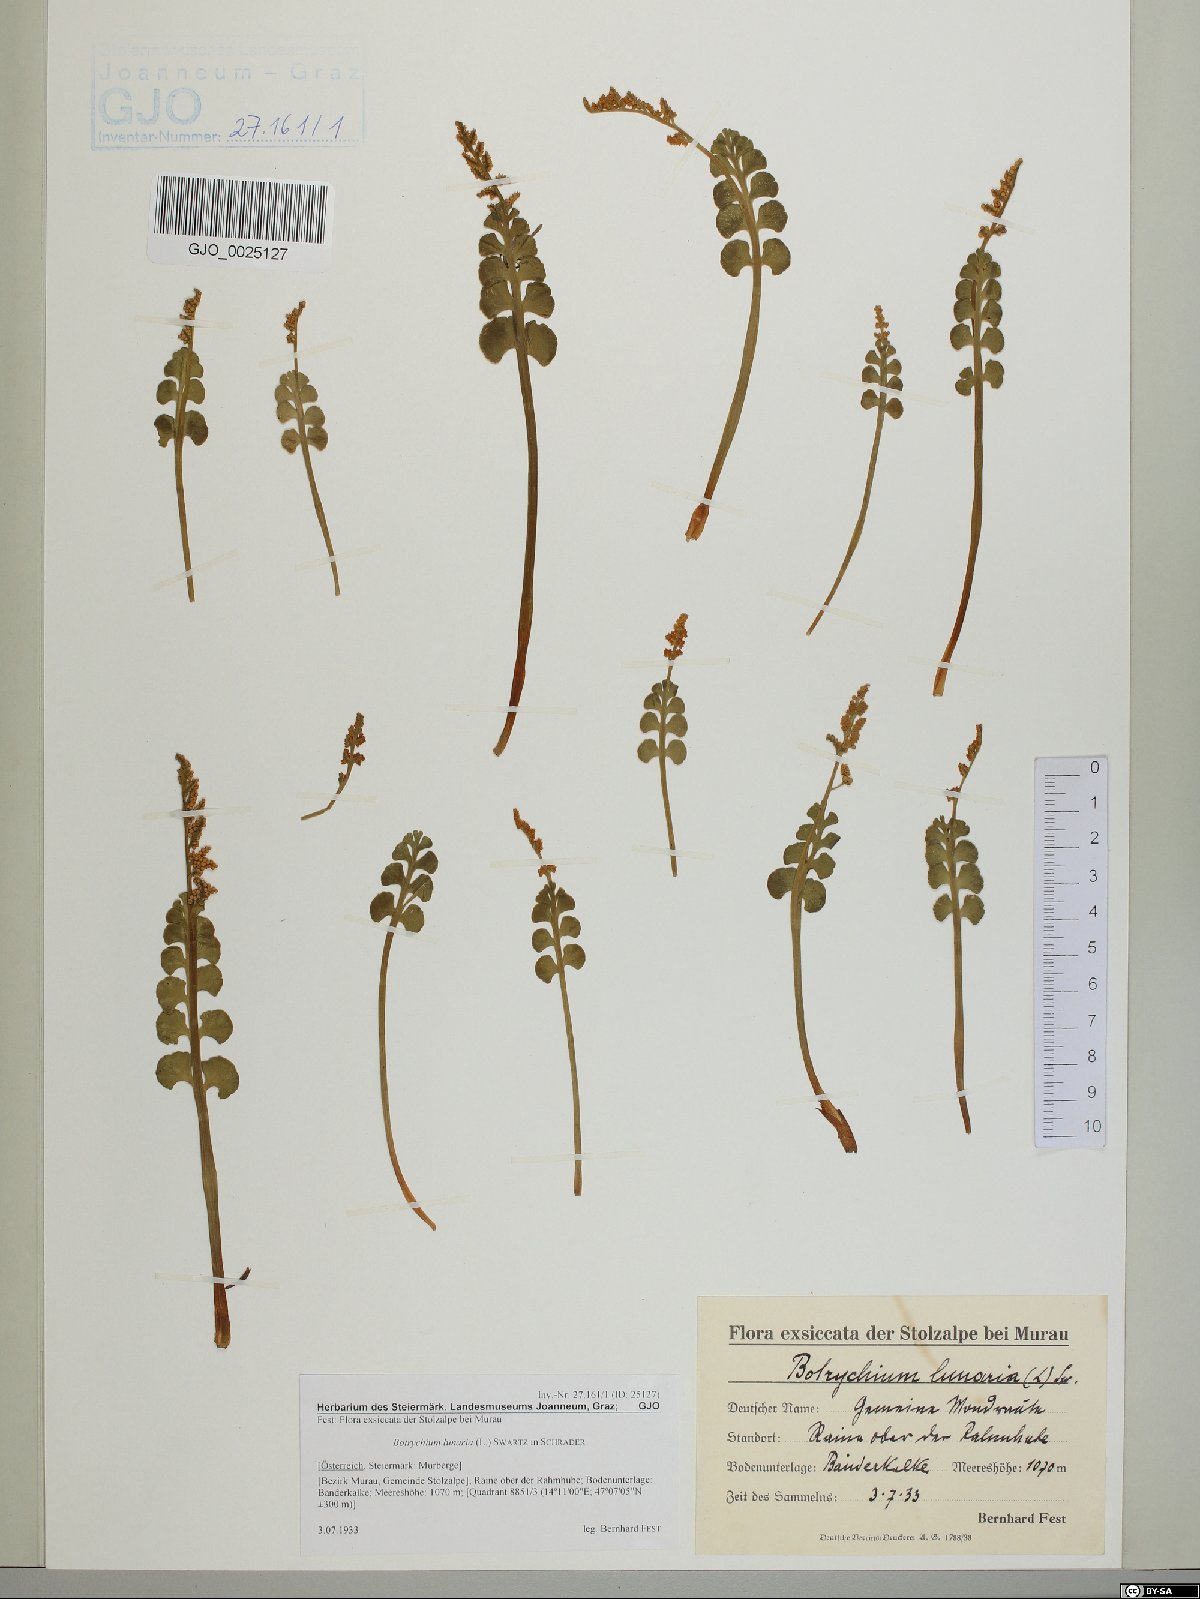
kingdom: Plantae
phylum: Tracheophyta
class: Polypodiopsida
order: Ophioglossales
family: Ophioglossaceae
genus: Botrychium
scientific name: Botrychium lunaria
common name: Moonwort
